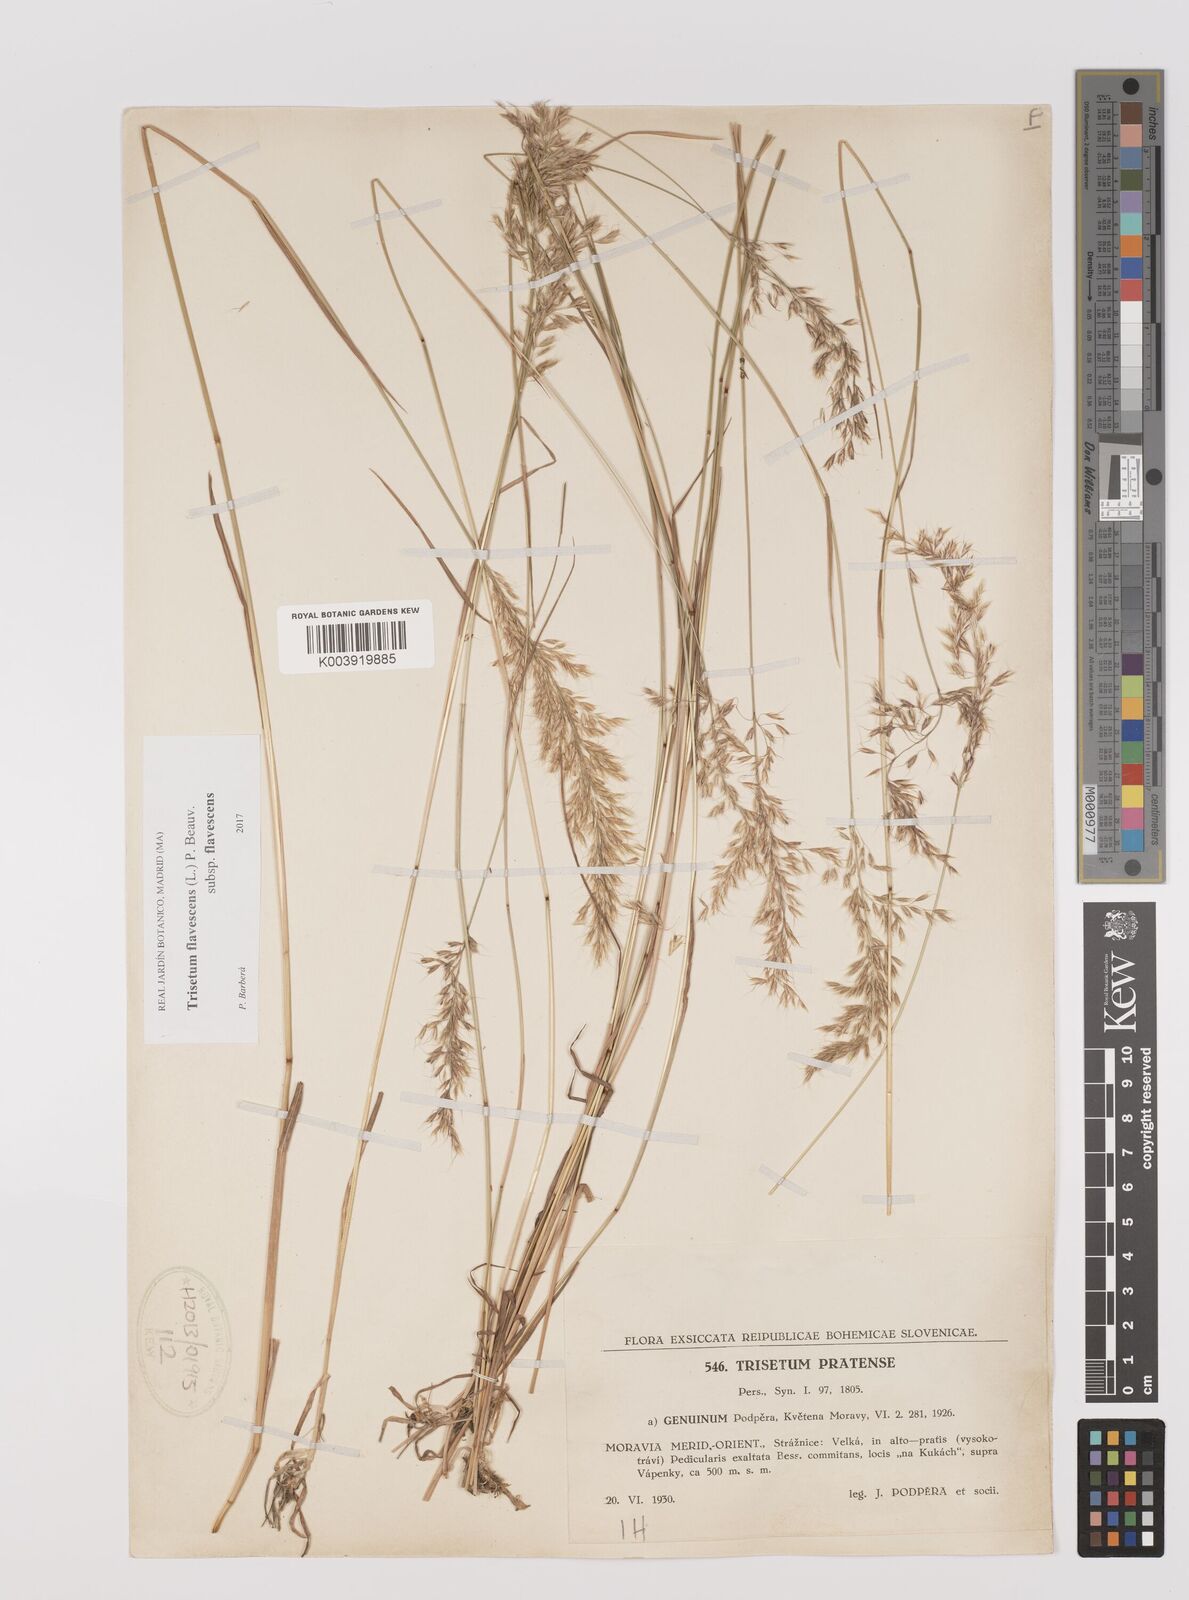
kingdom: Plantae
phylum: Tracheophyta
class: Liliopsida
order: Poales
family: Poaceae
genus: Trisetum
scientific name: Trisetum flavescens
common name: Yellow oat-grass
